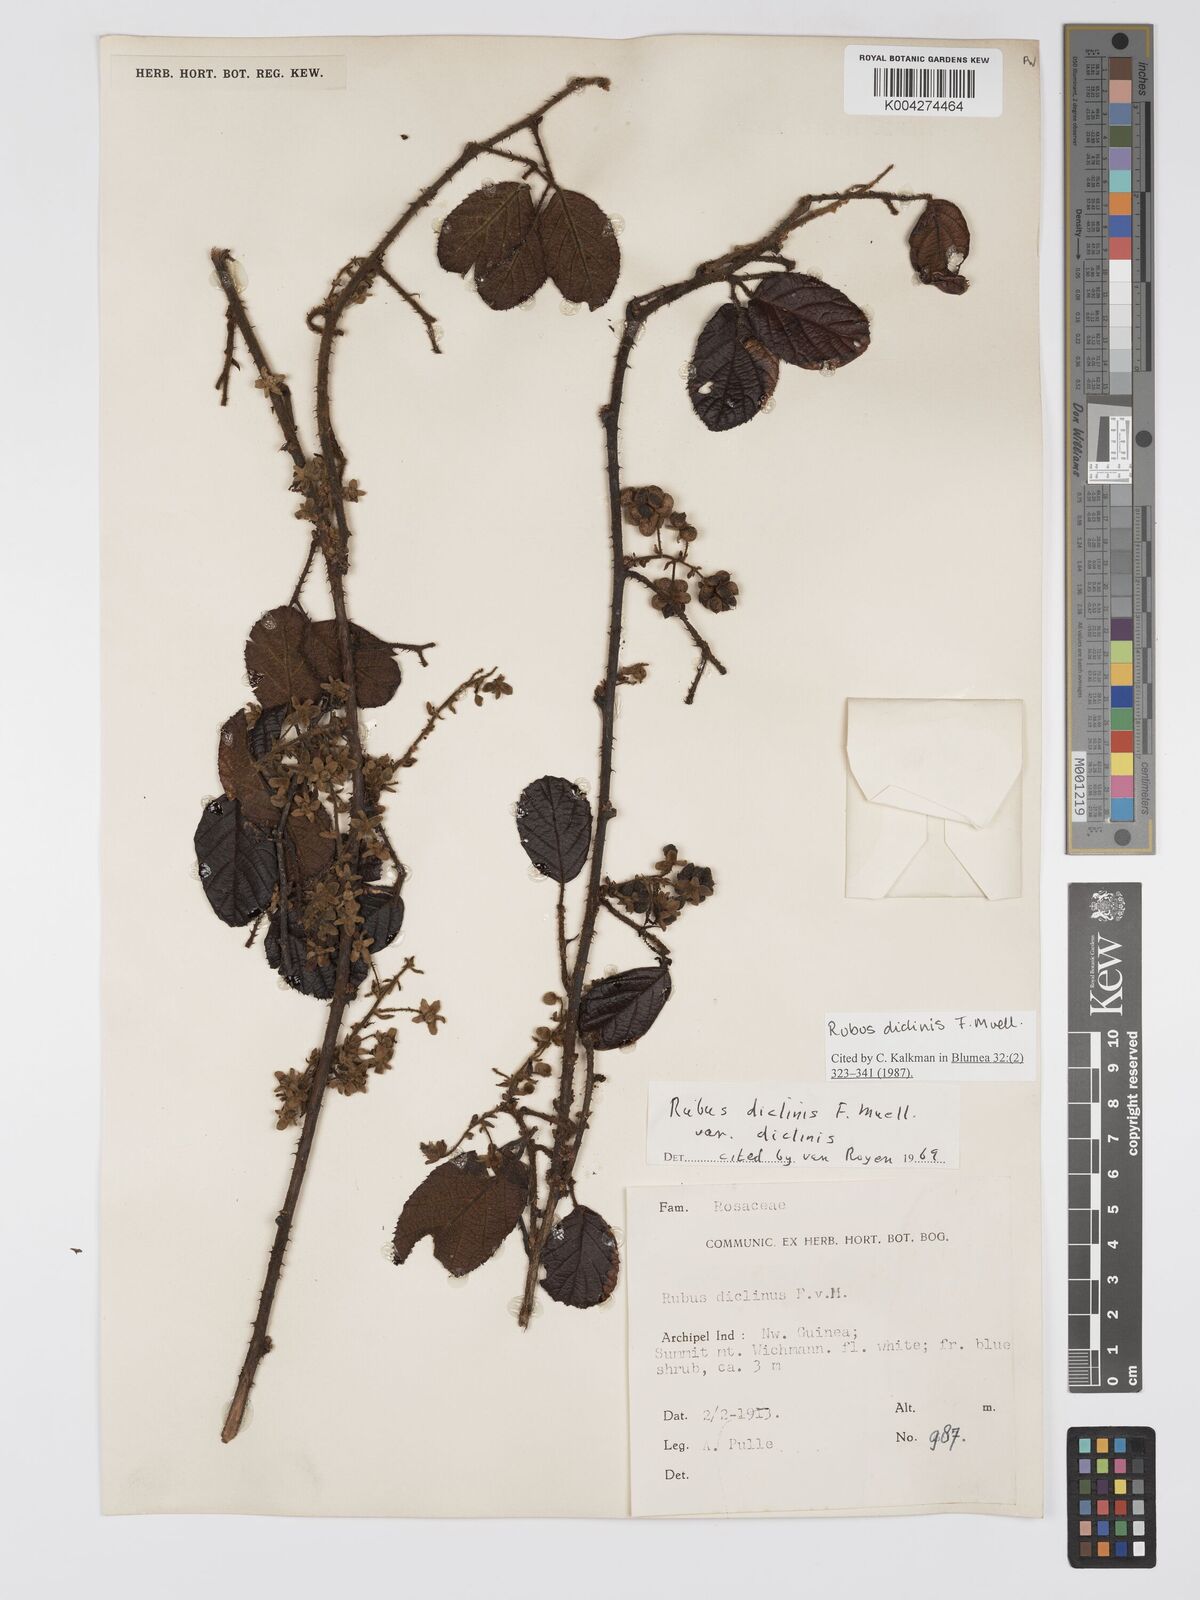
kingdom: Plantae
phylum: Tracheophyta
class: Magnoliopsida
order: Rosales
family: Rosaceae
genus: Rubus
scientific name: Rubus diclinis
